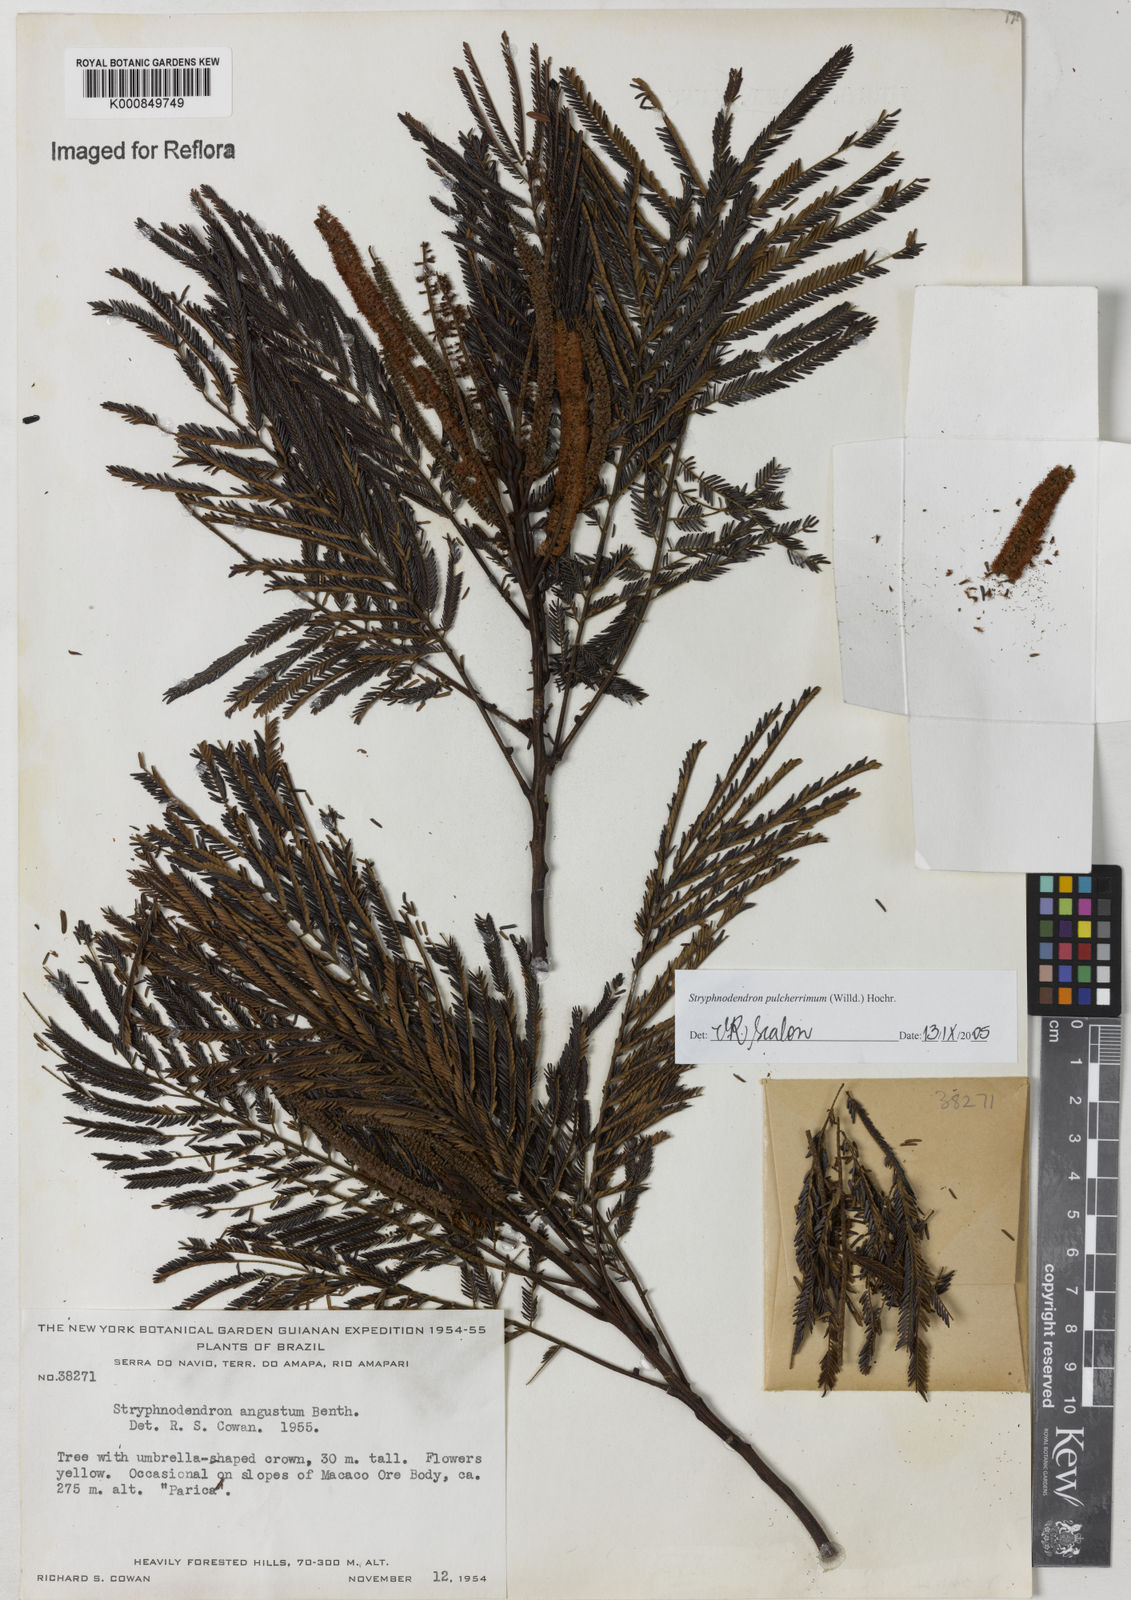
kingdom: Plantae
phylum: Tracheophyta
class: Magnoliopsida
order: Fabales
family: Fabaceae
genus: Stryphnodendron
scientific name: Stryphnodendron pulcherrimum
